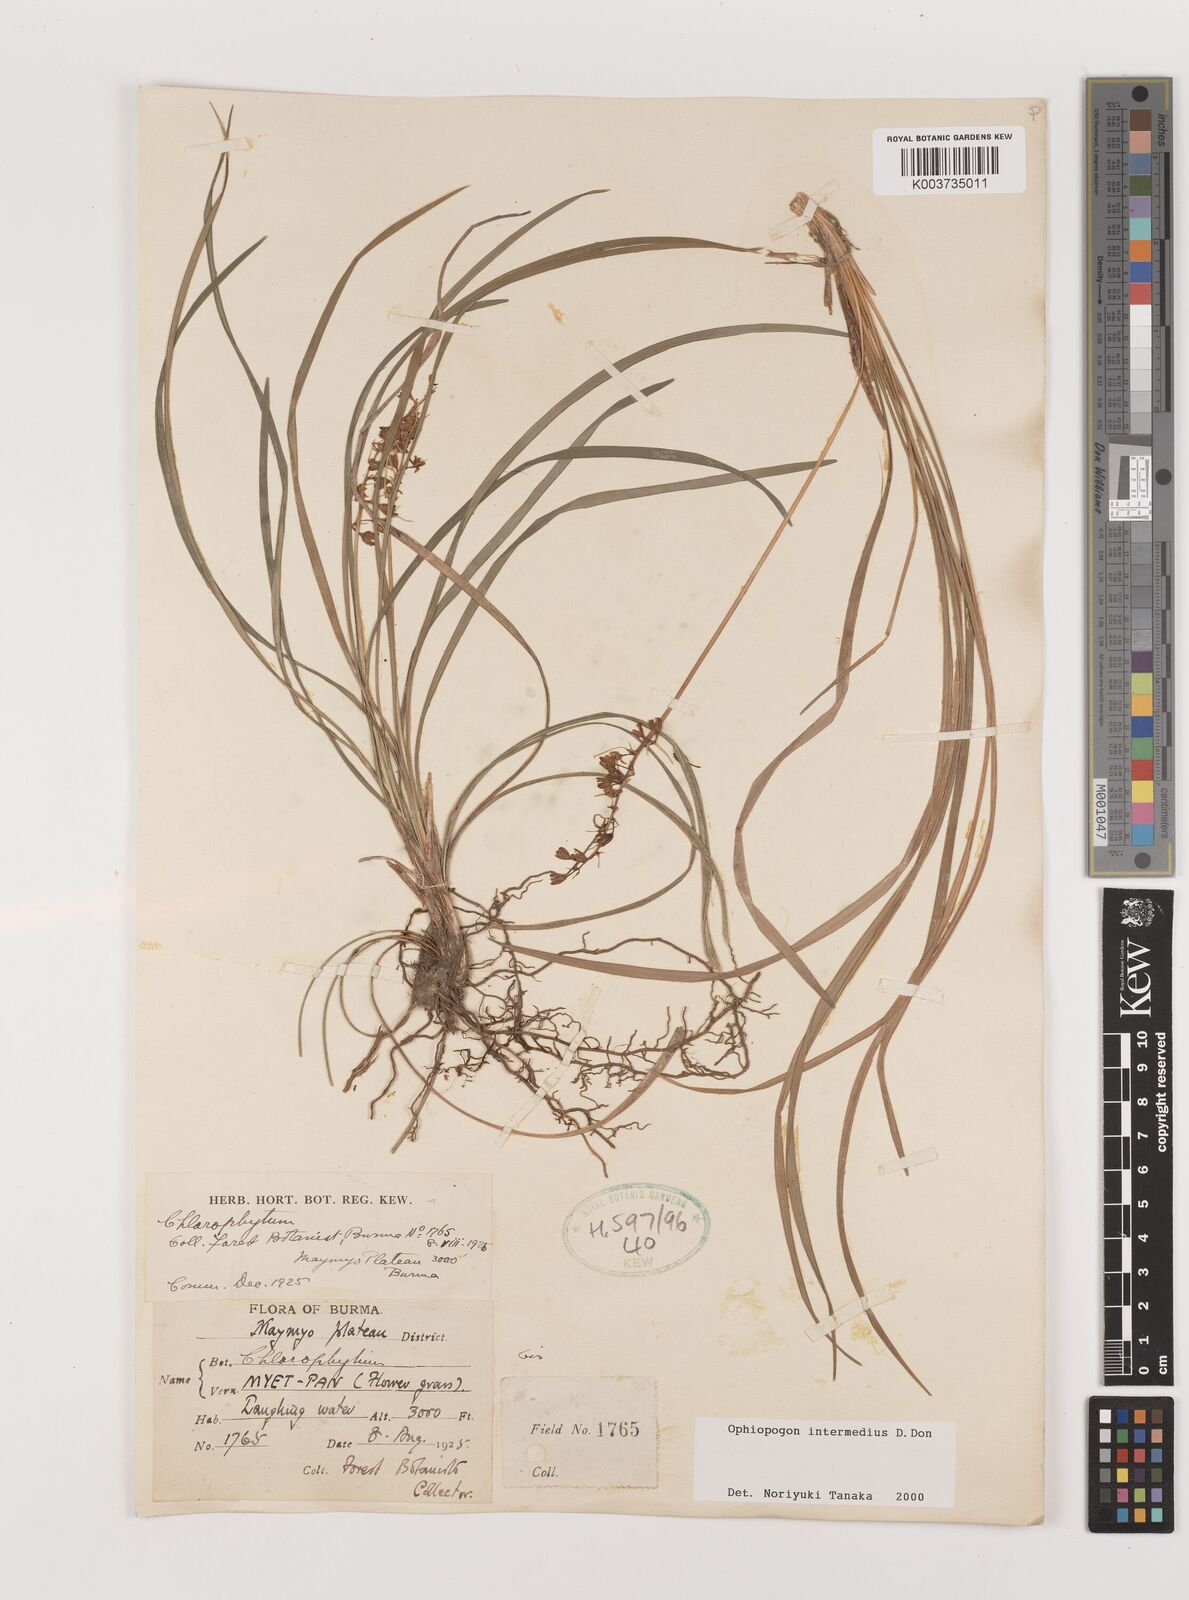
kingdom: Plantae
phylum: Tracheophyta
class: Liliopsida
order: Asparagales
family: Asparagaceae
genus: Ophiopogon
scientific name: Ophiopogon intermedius
